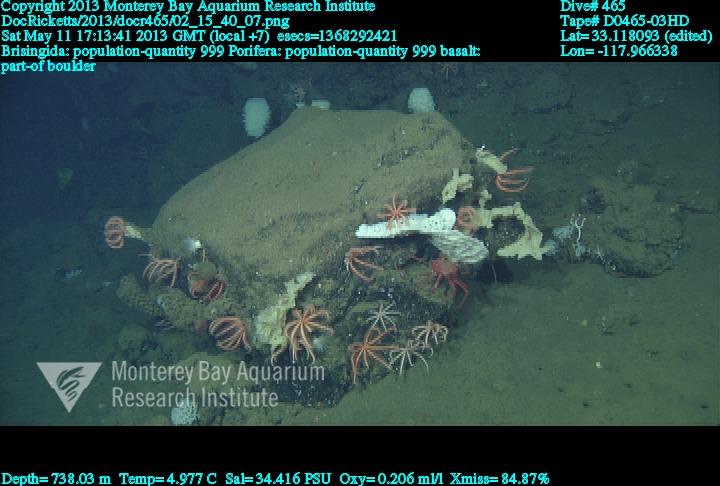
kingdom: Animalia
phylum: Porifera
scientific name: Porifera
